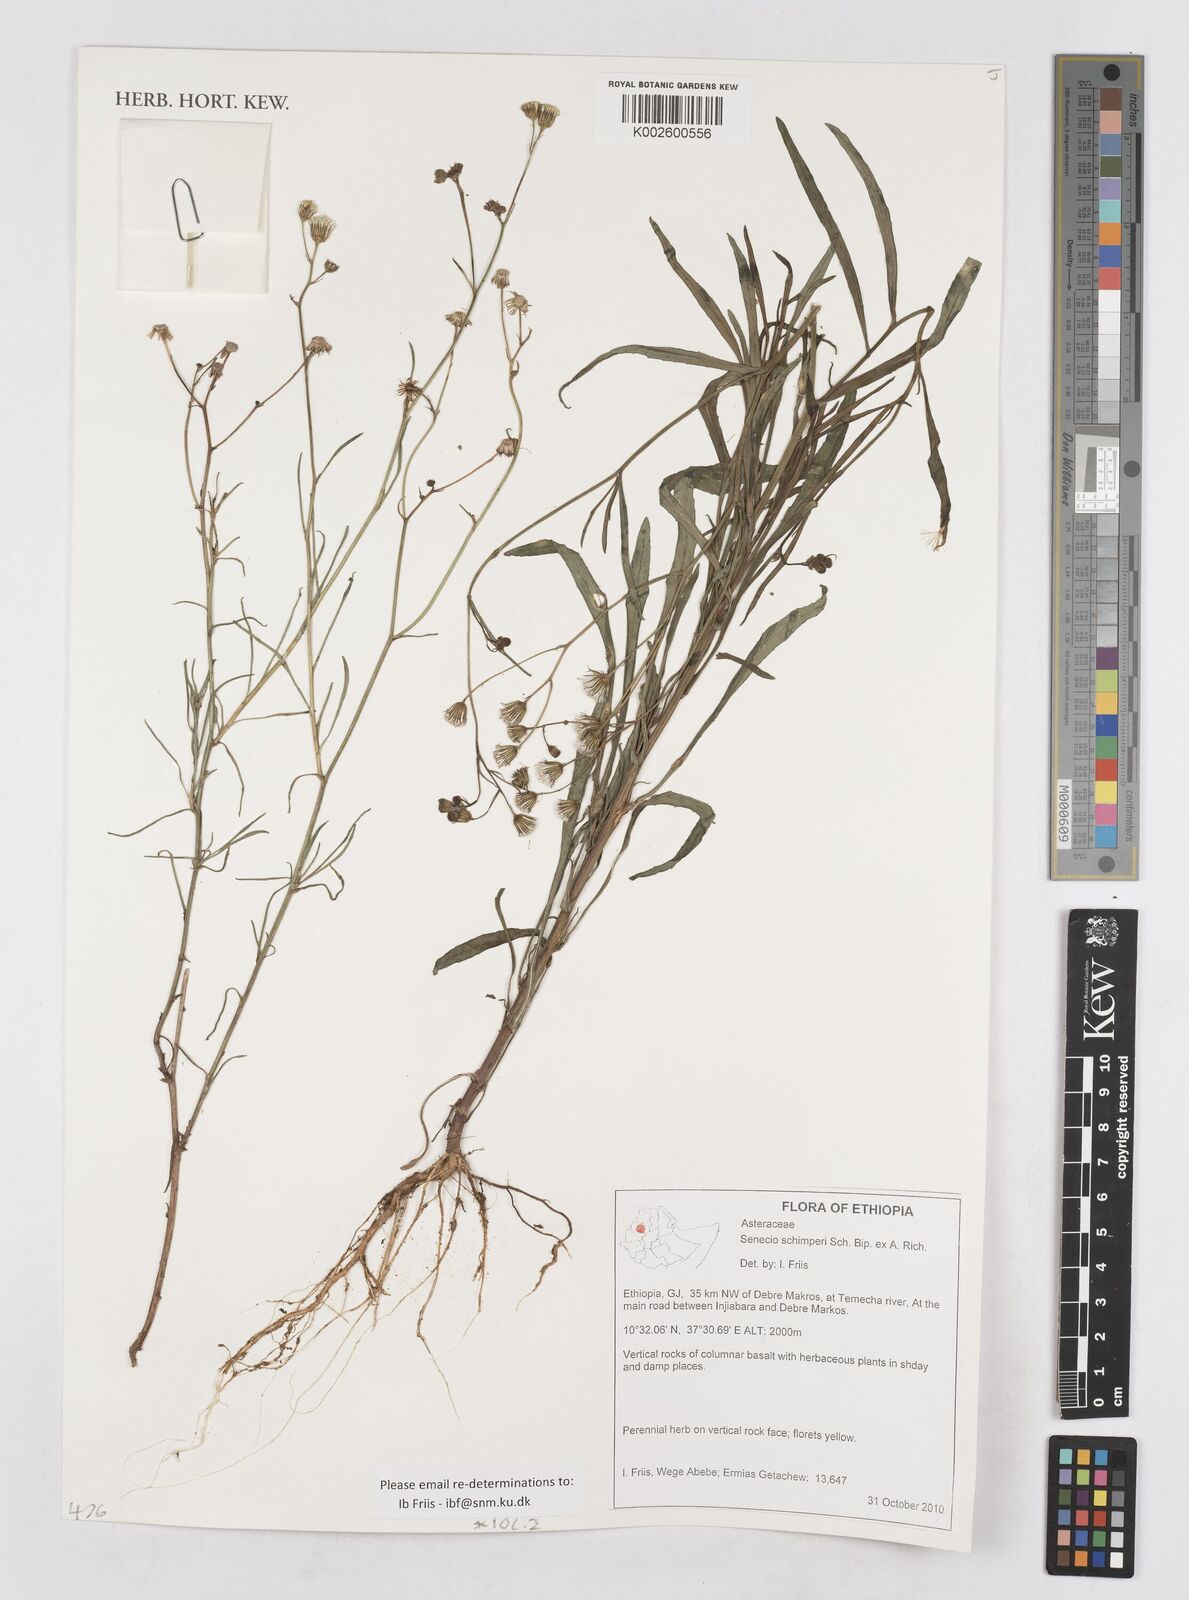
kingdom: Plantae
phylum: Tracheophyta
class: Magnoliopsida
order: Asterales
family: Asteraceae
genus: Senecio
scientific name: Senecio schimperi
